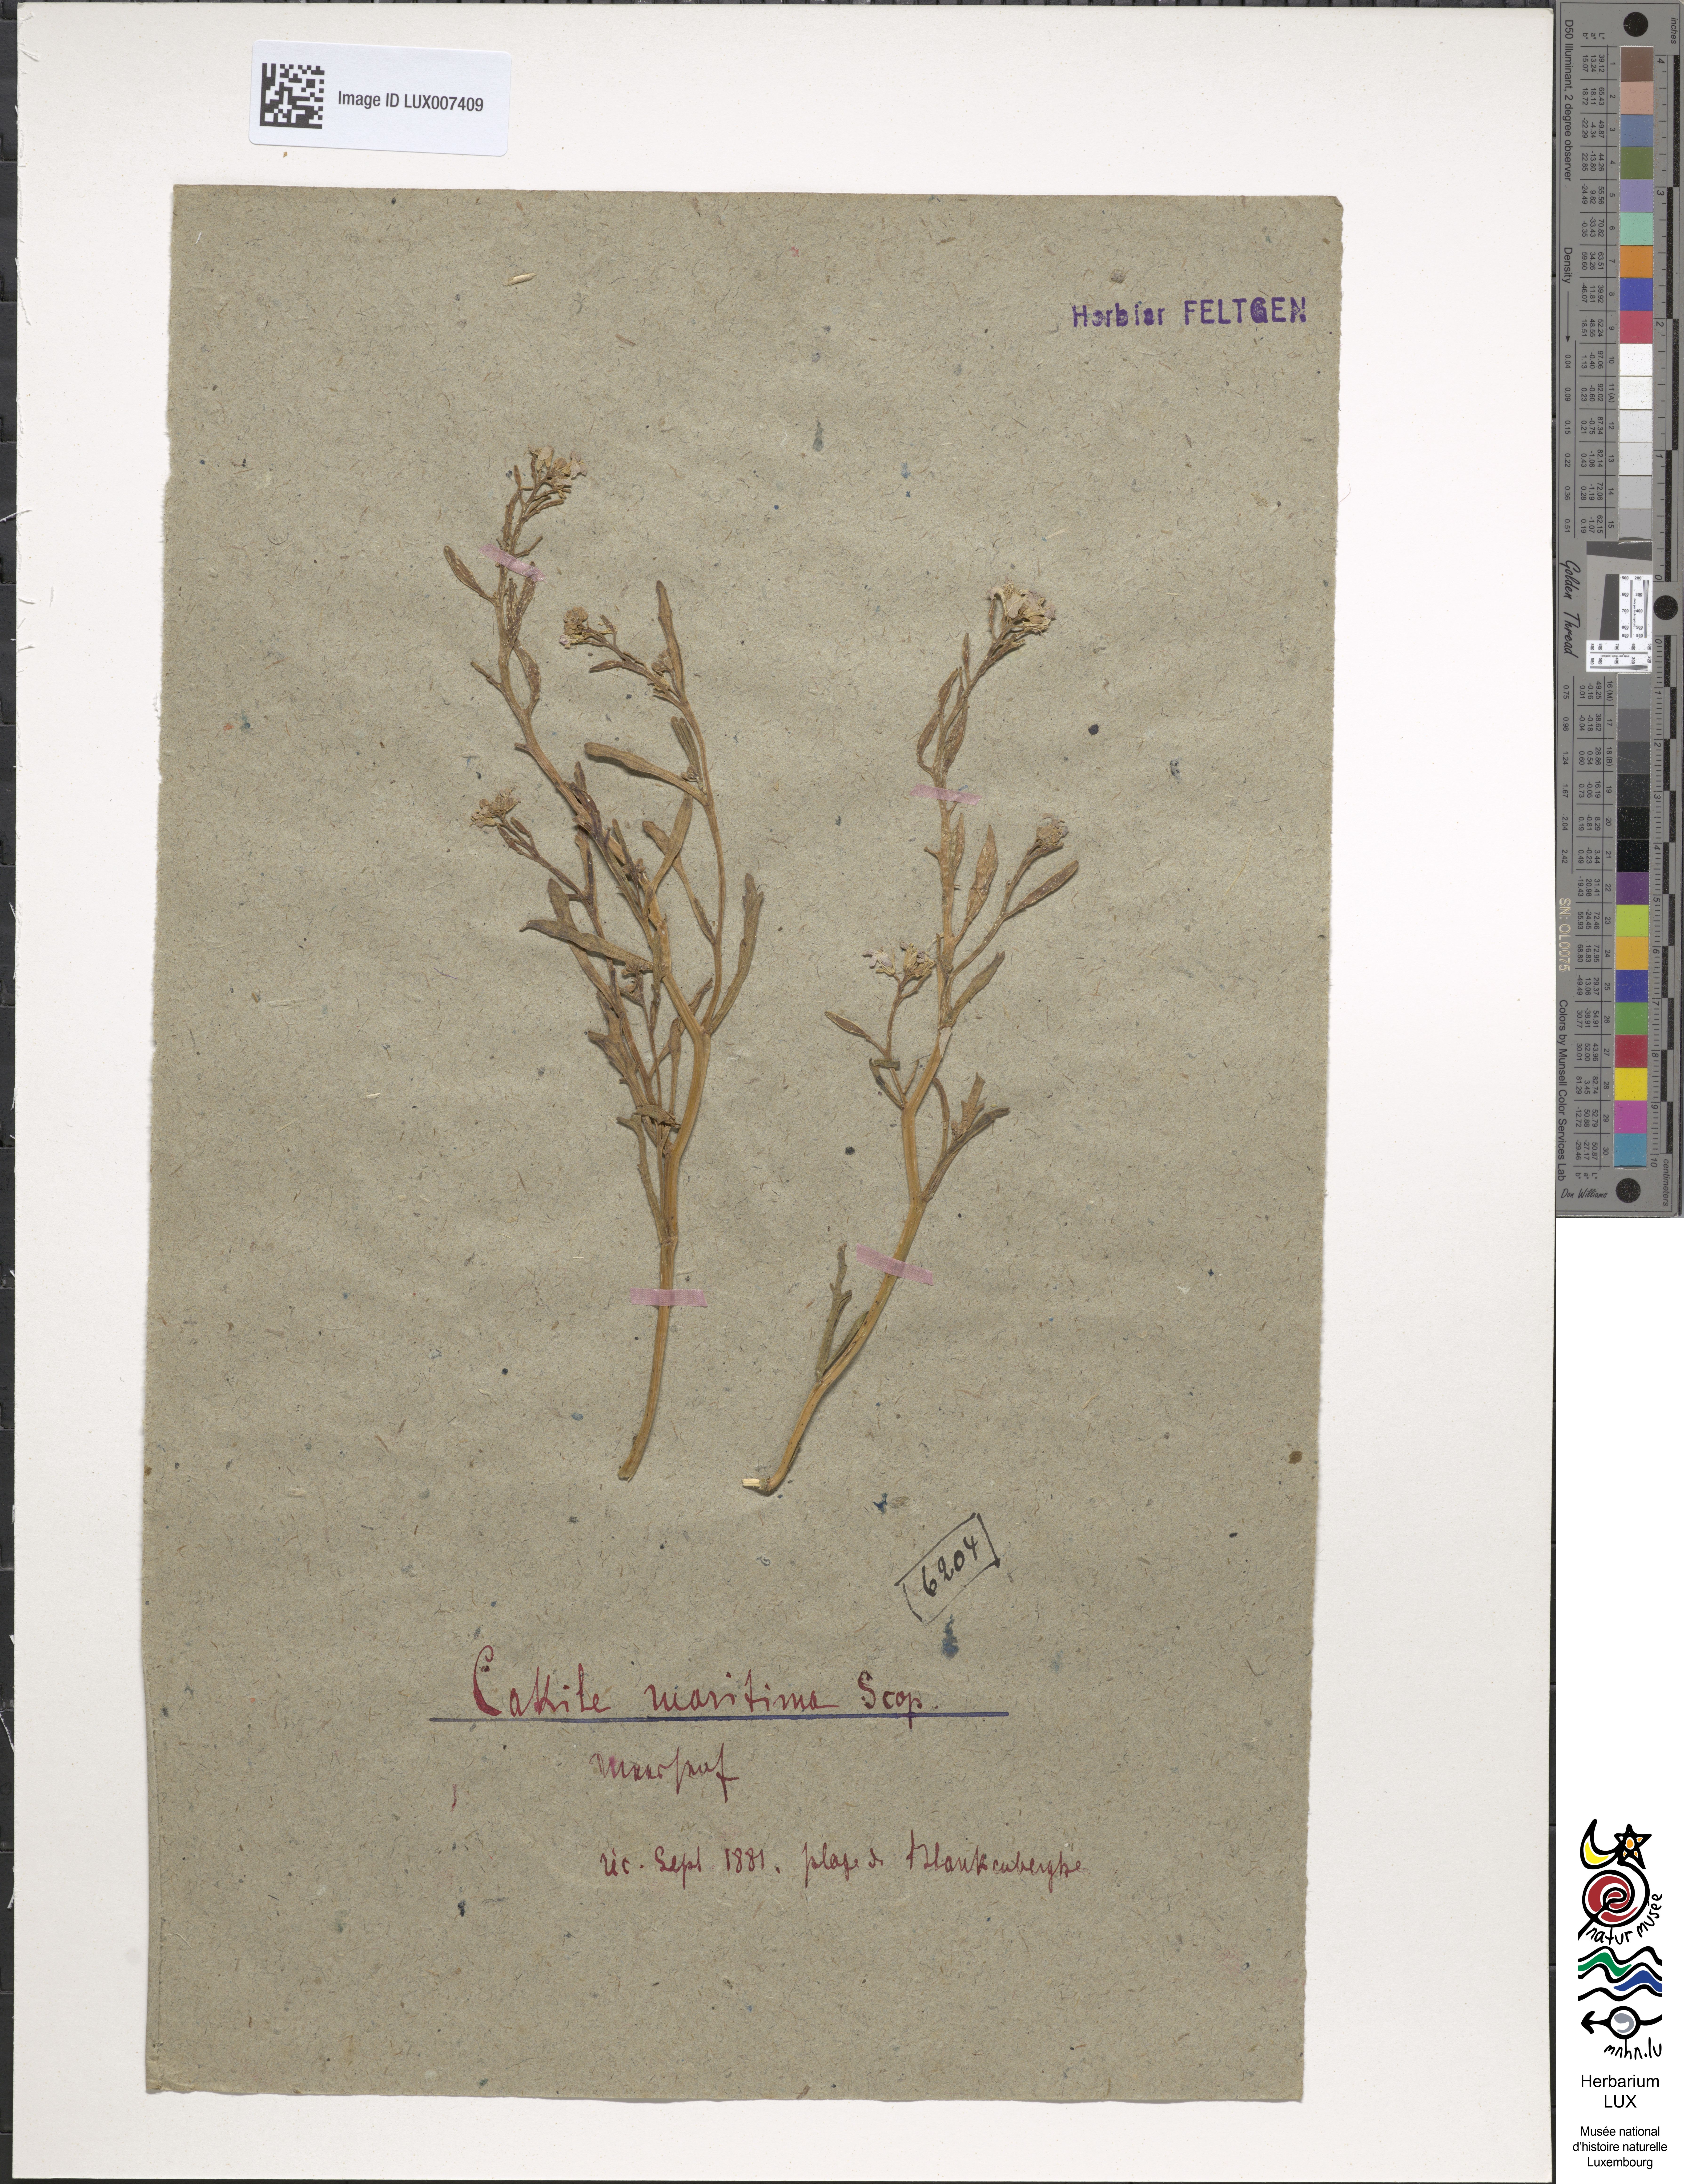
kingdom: Plantae
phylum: Tracheophyta
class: Magnoliopsida
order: Brassicales
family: Brassicaceae
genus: Cakile
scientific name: Cakile maritima
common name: Sea rocket
